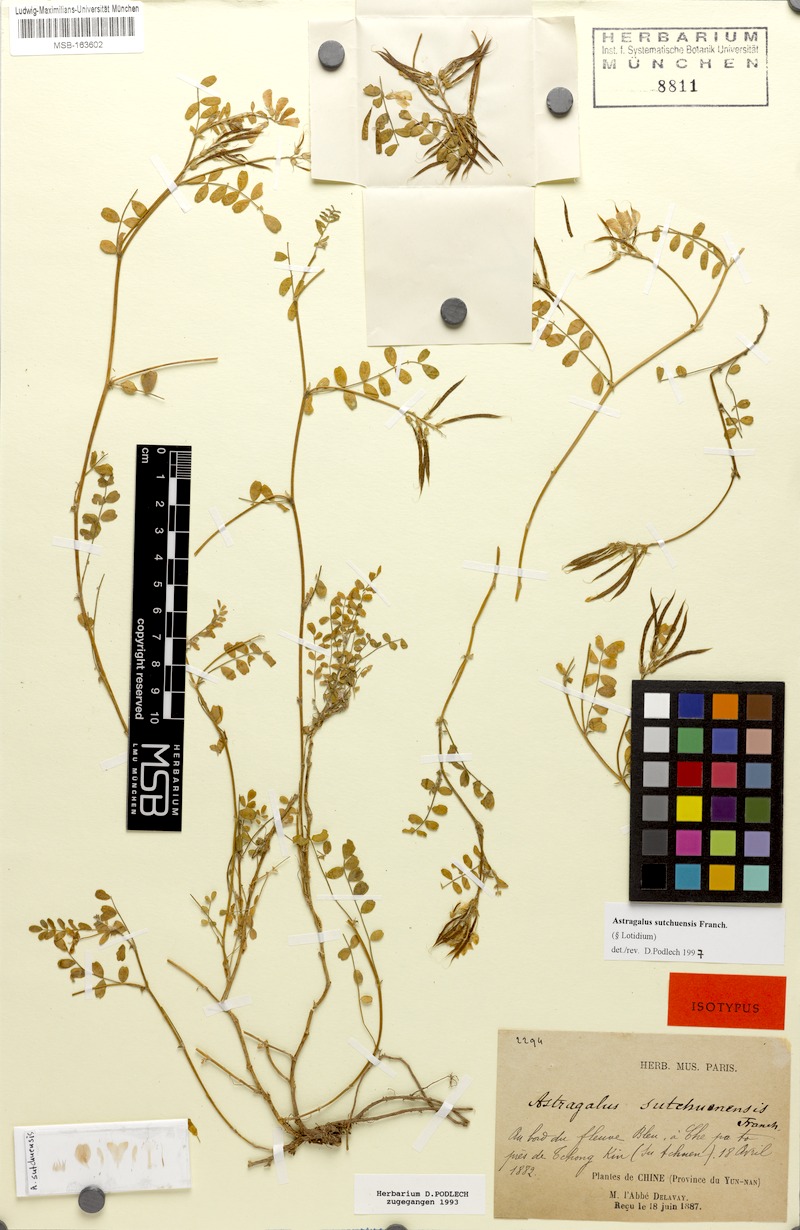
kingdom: Plantae
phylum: Tracheophyta
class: Magnoliopsida
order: Fabales
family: Fabaceae
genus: Astragalus
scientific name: Astragalus davidii
